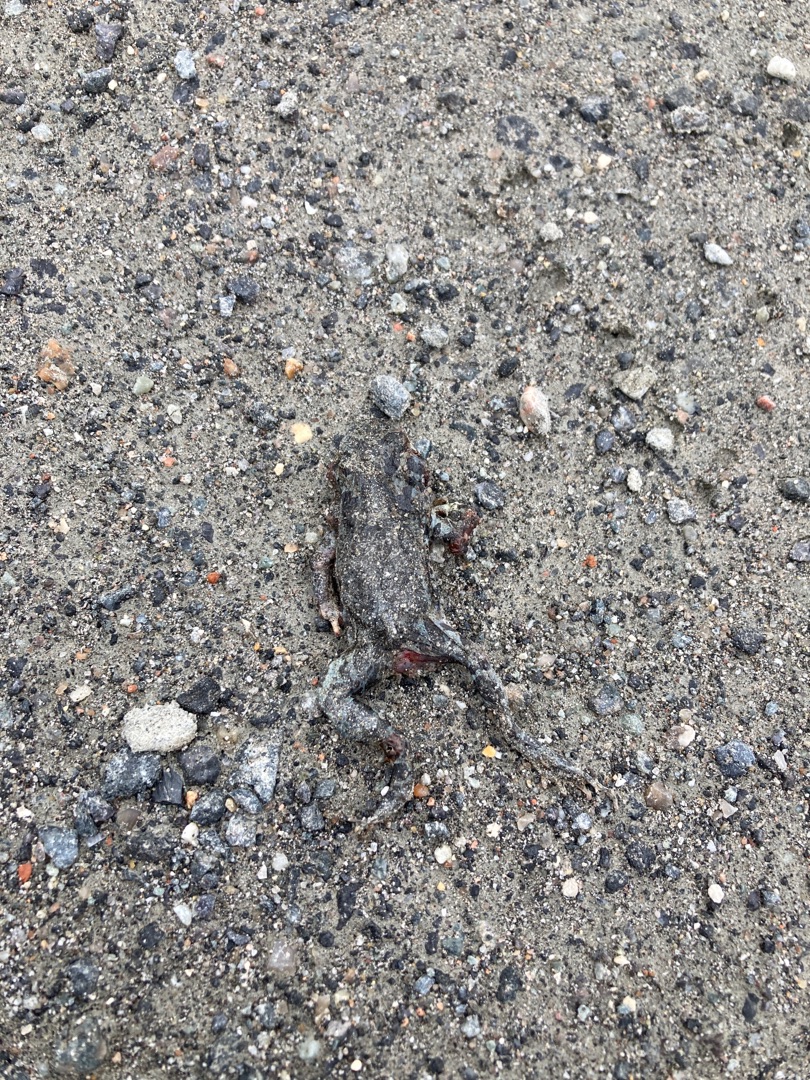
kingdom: Animalia
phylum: Chordata
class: Amphibia
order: Anura
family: Bufonidae
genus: Bufotes
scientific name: Bufotes viridis
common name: Grønbroget tudse
